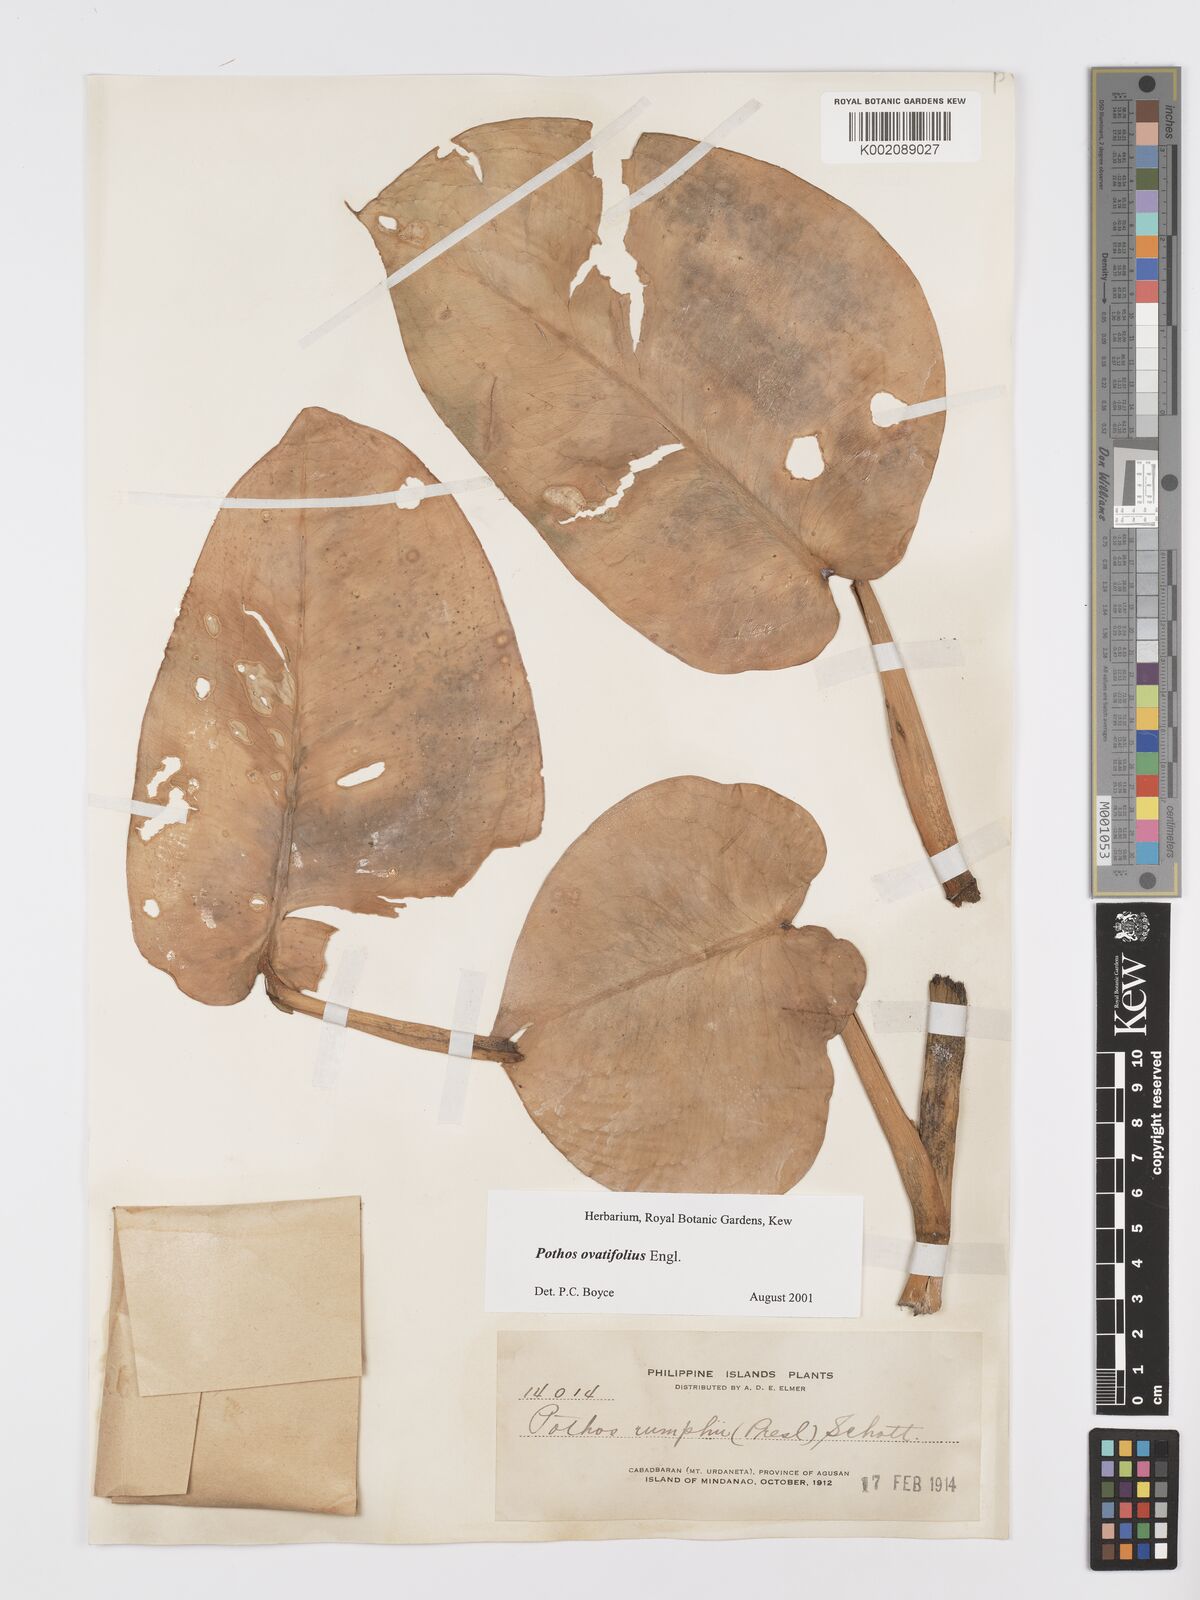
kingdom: Plantae
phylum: Tracheophyta
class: Liliopsida
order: Alismatales
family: Araceae
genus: Pothos
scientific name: Pothos ovatifolius
